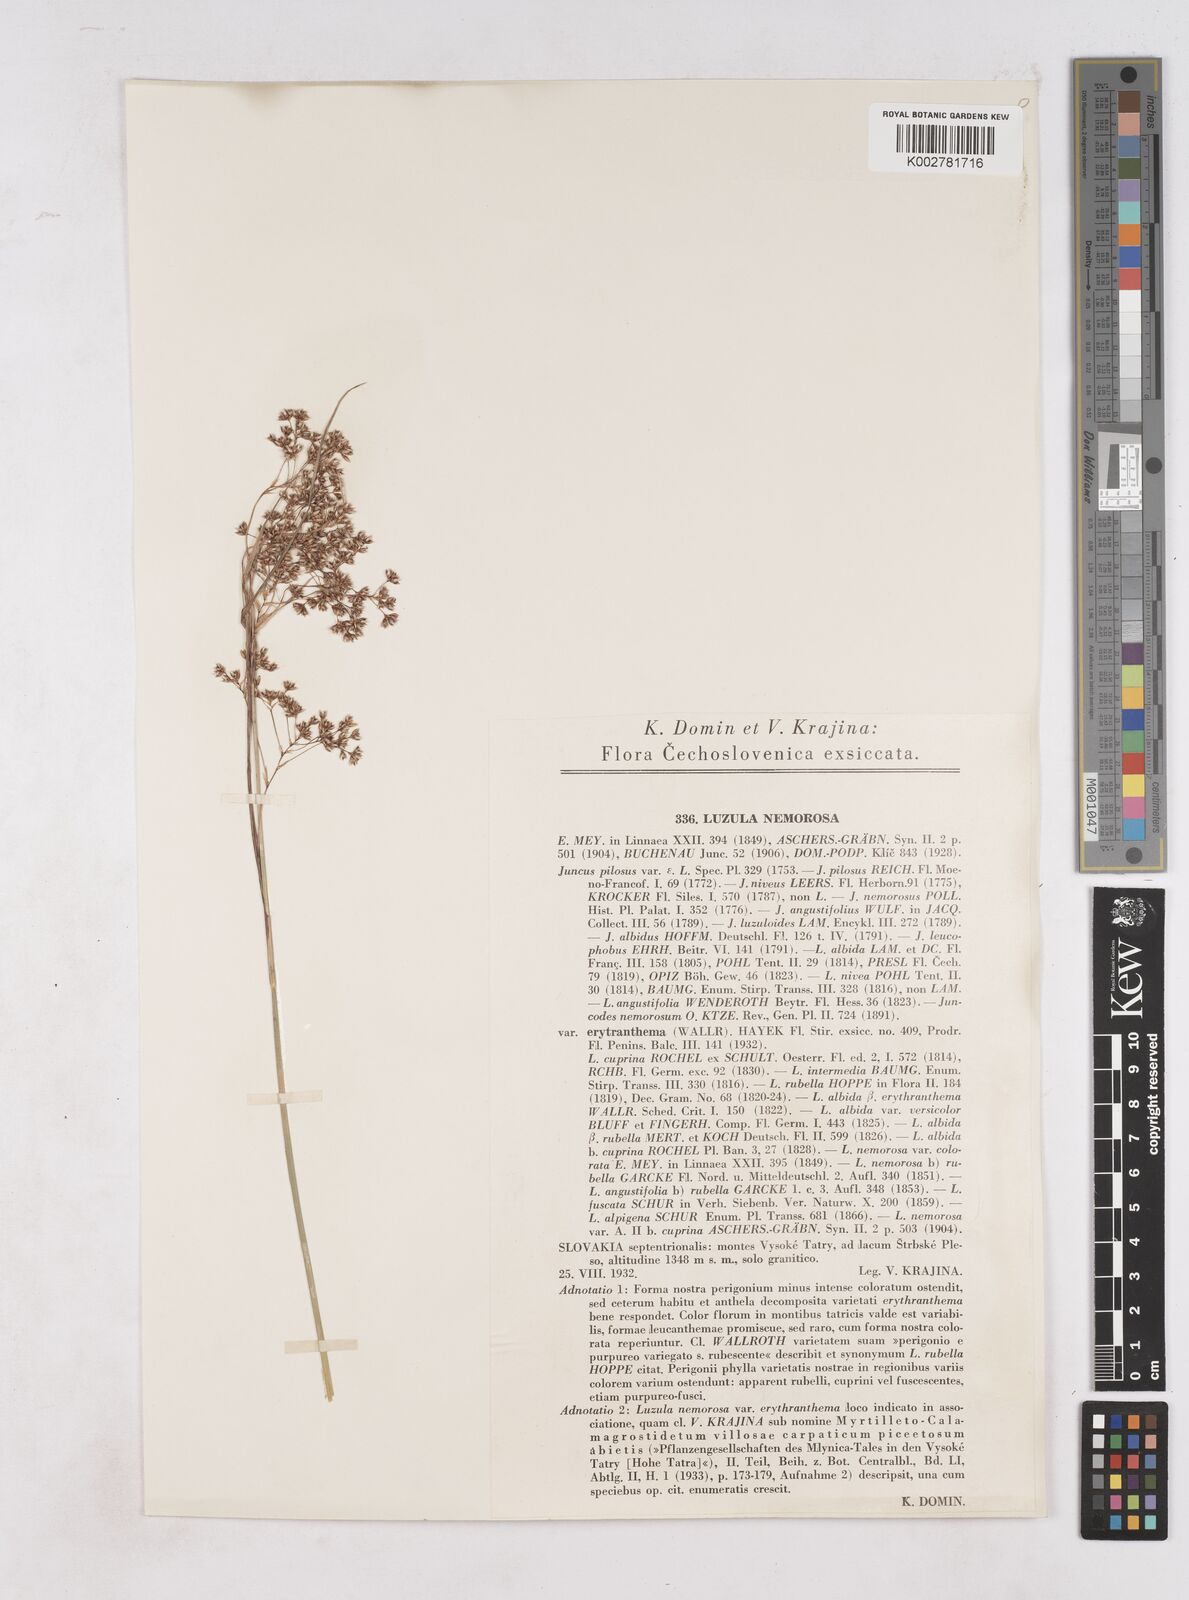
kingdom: Plantae
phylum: Tracheophyta
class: Liliopsida
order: Poales
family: Juncaceae
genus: Luzula
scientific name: Luzula luzuloides
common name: White wood-rush
